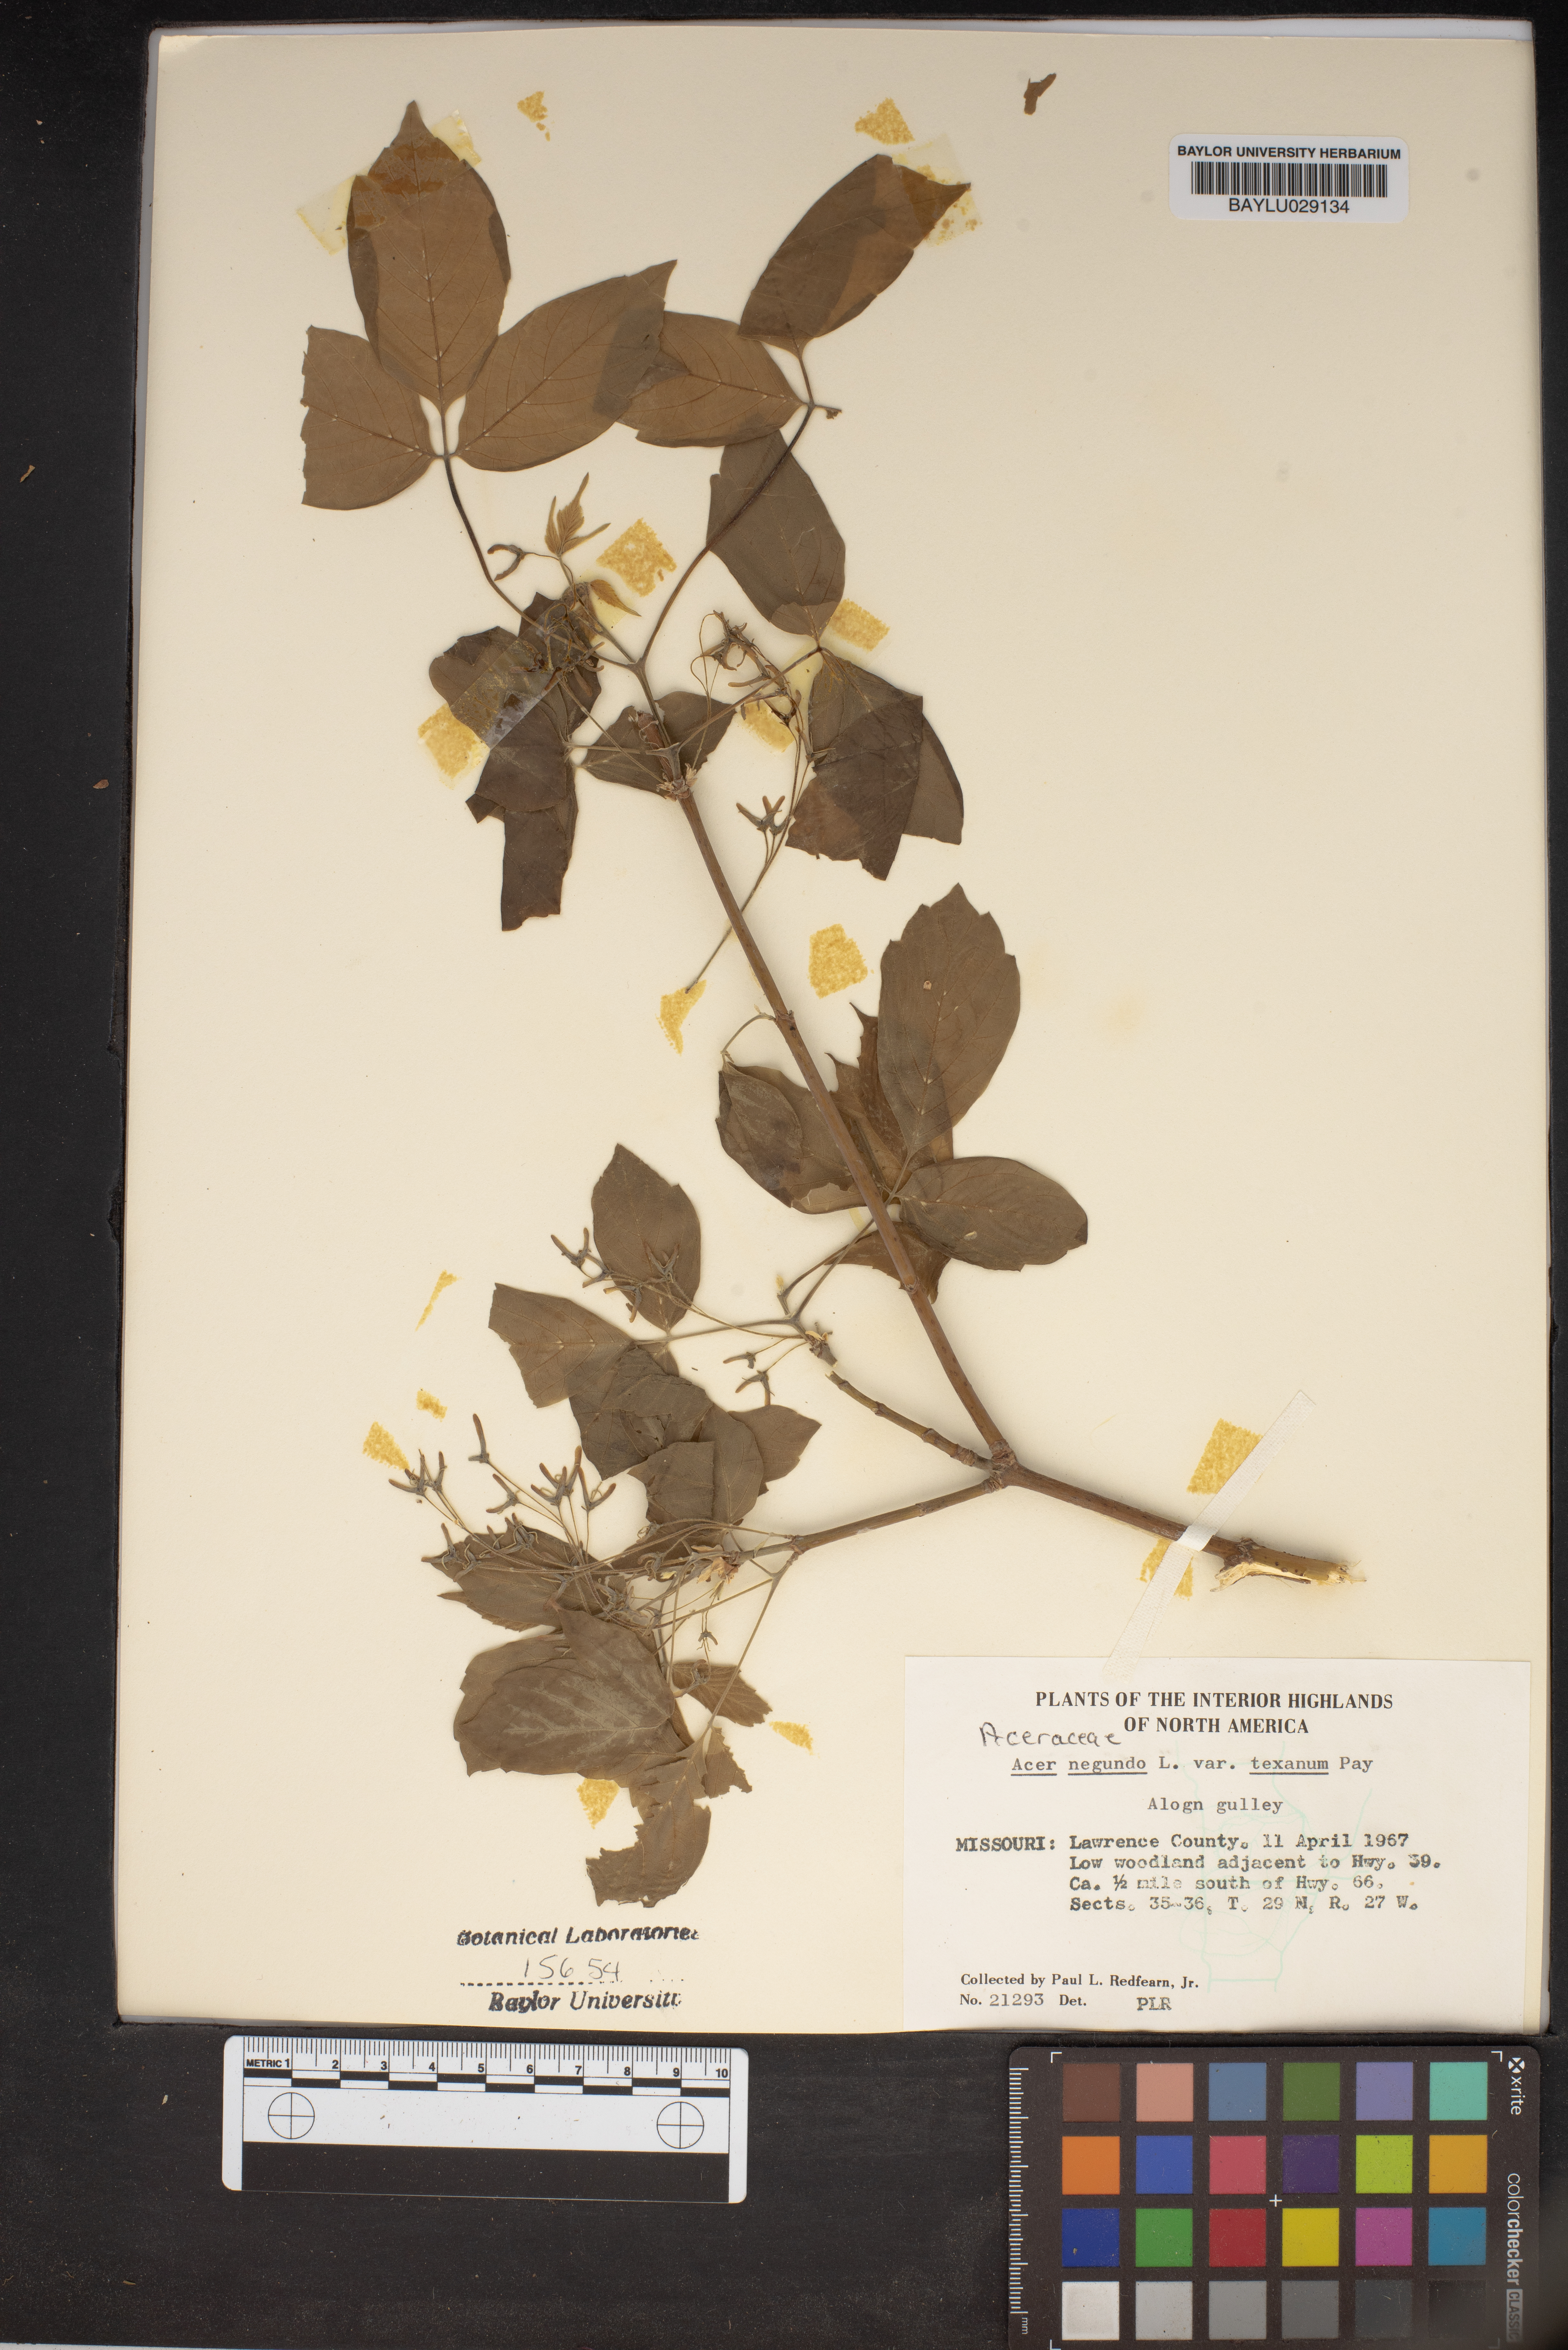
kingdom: Plantae
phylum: Tracheophyta
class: Magnoliopsida
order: Sapindales
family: Sapindaceae
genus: Acer
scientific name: Acer negundo
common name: Ashleaf maple
